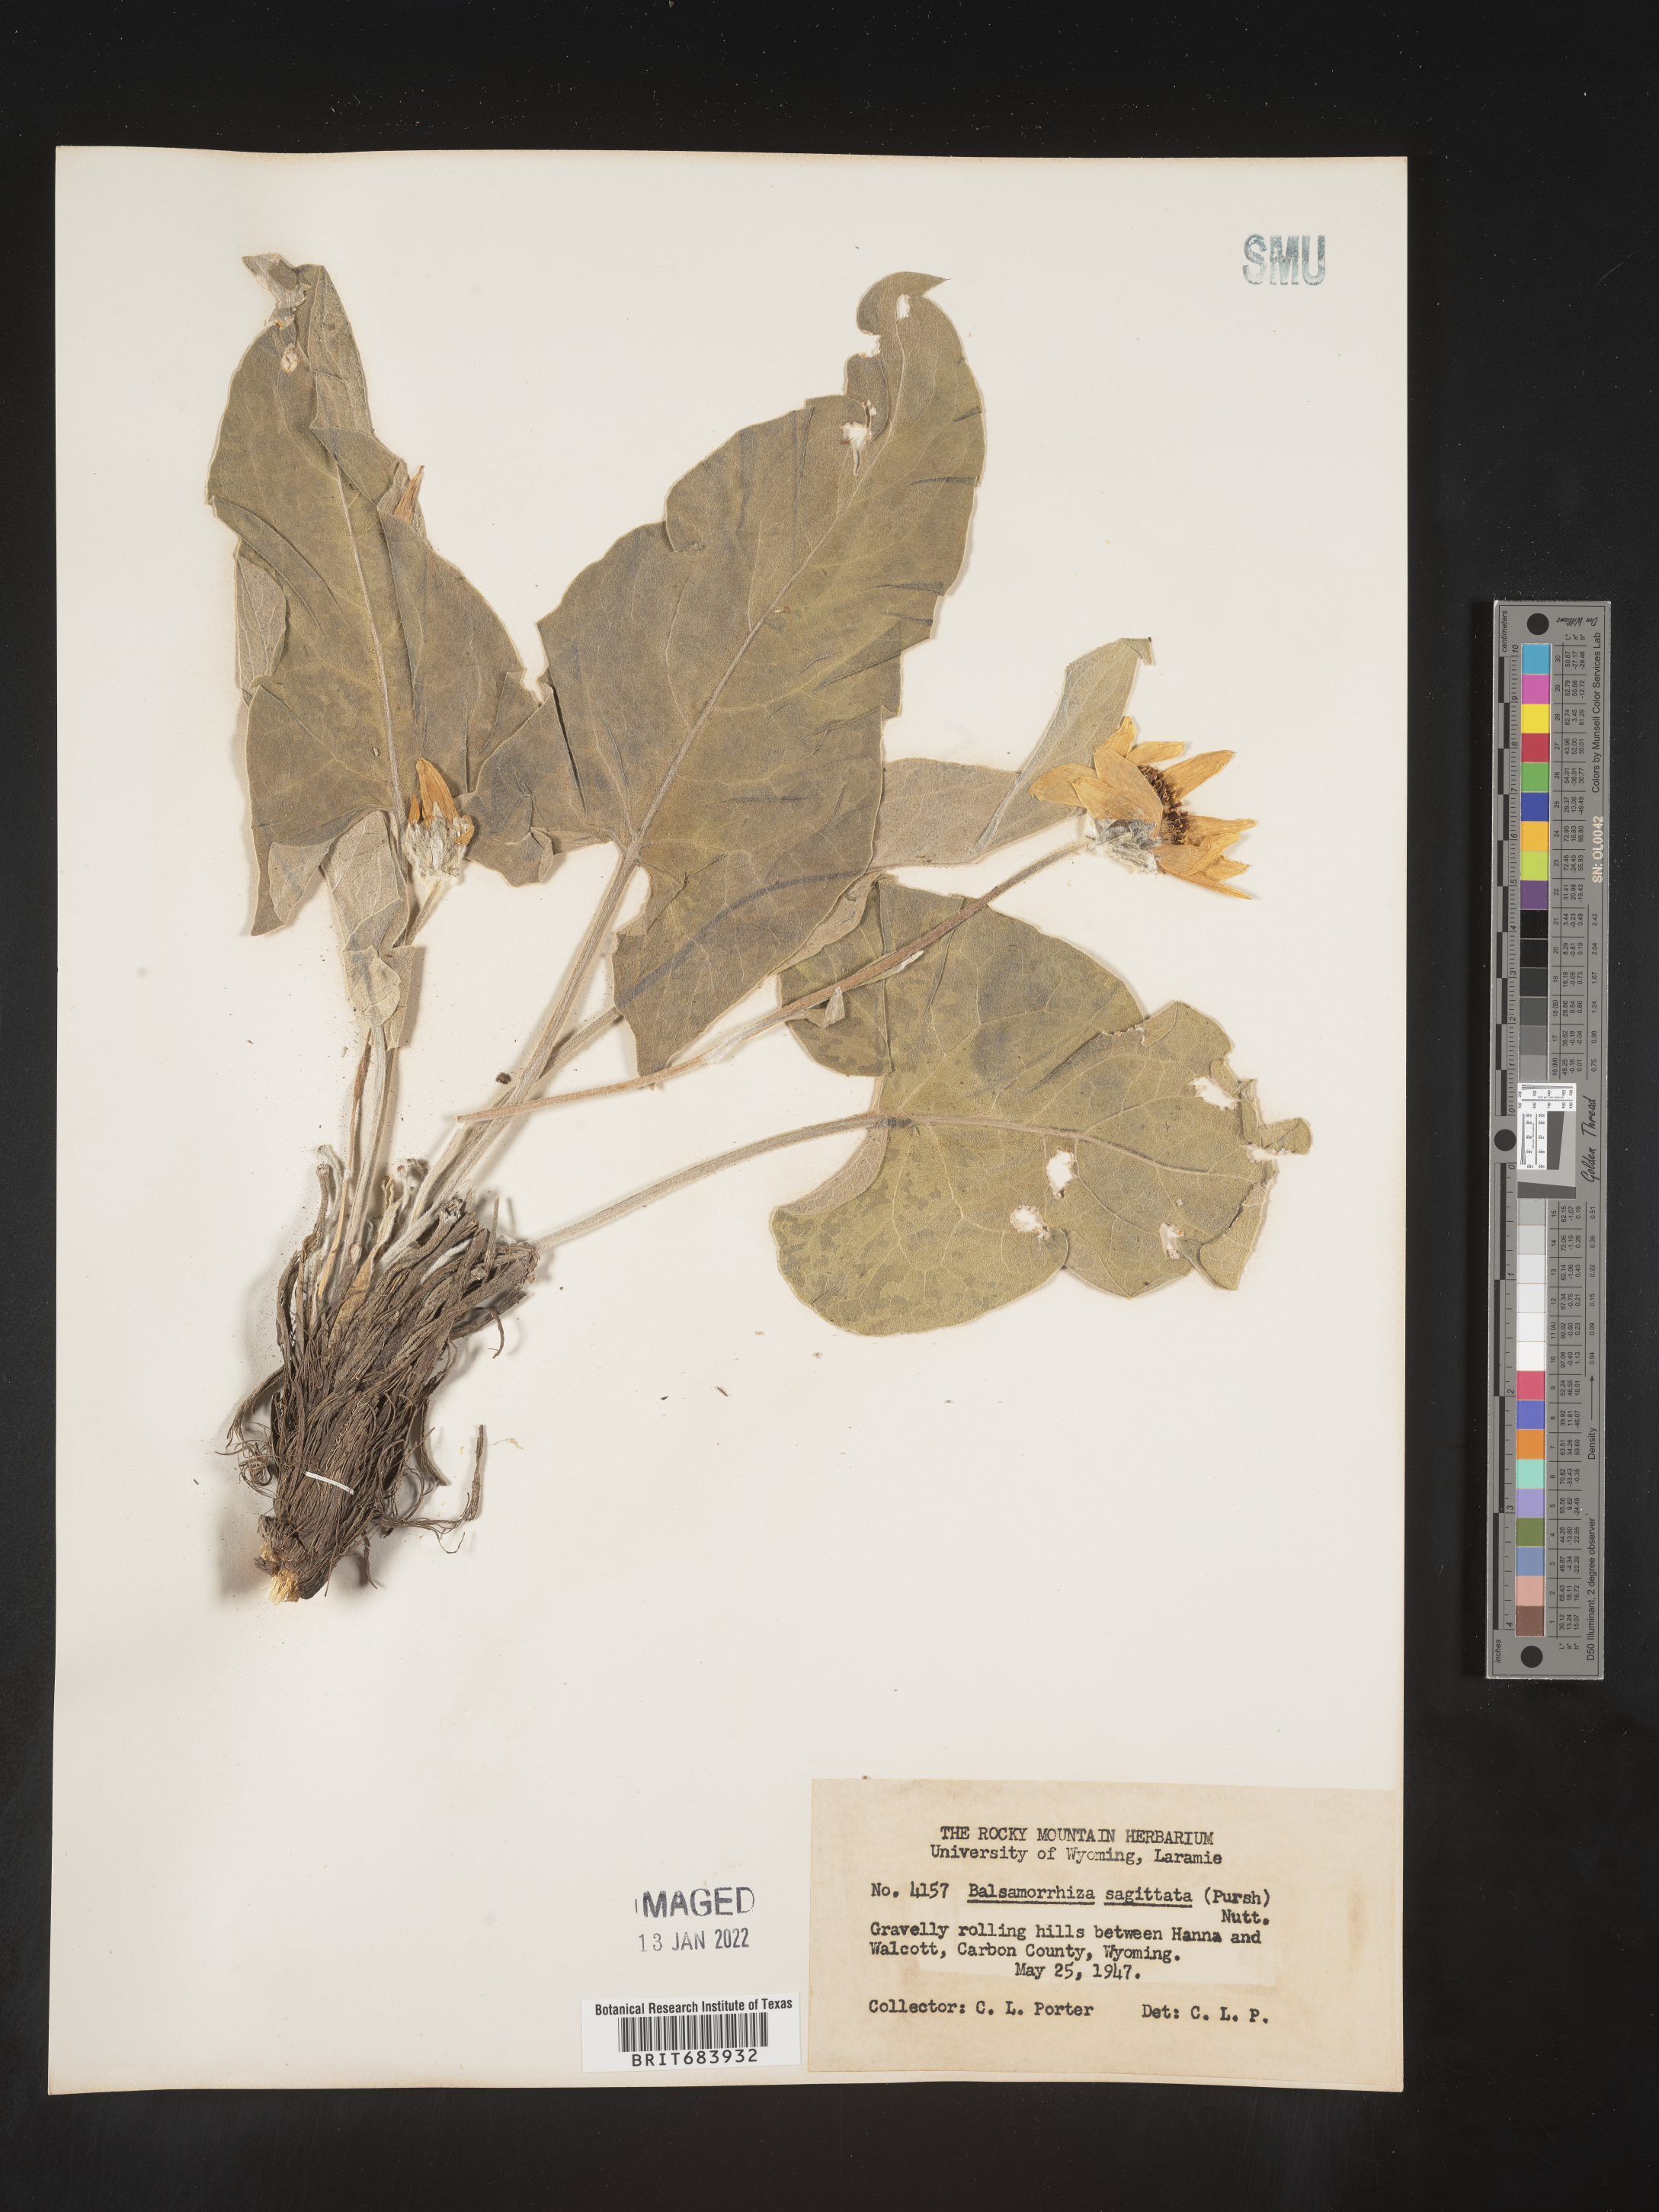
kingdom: Plantae
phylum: Tracheophyta
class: Magnoliopsida
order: Asterales
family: Asteraceae
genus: Wyethia
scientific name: Wyethia sagittata
